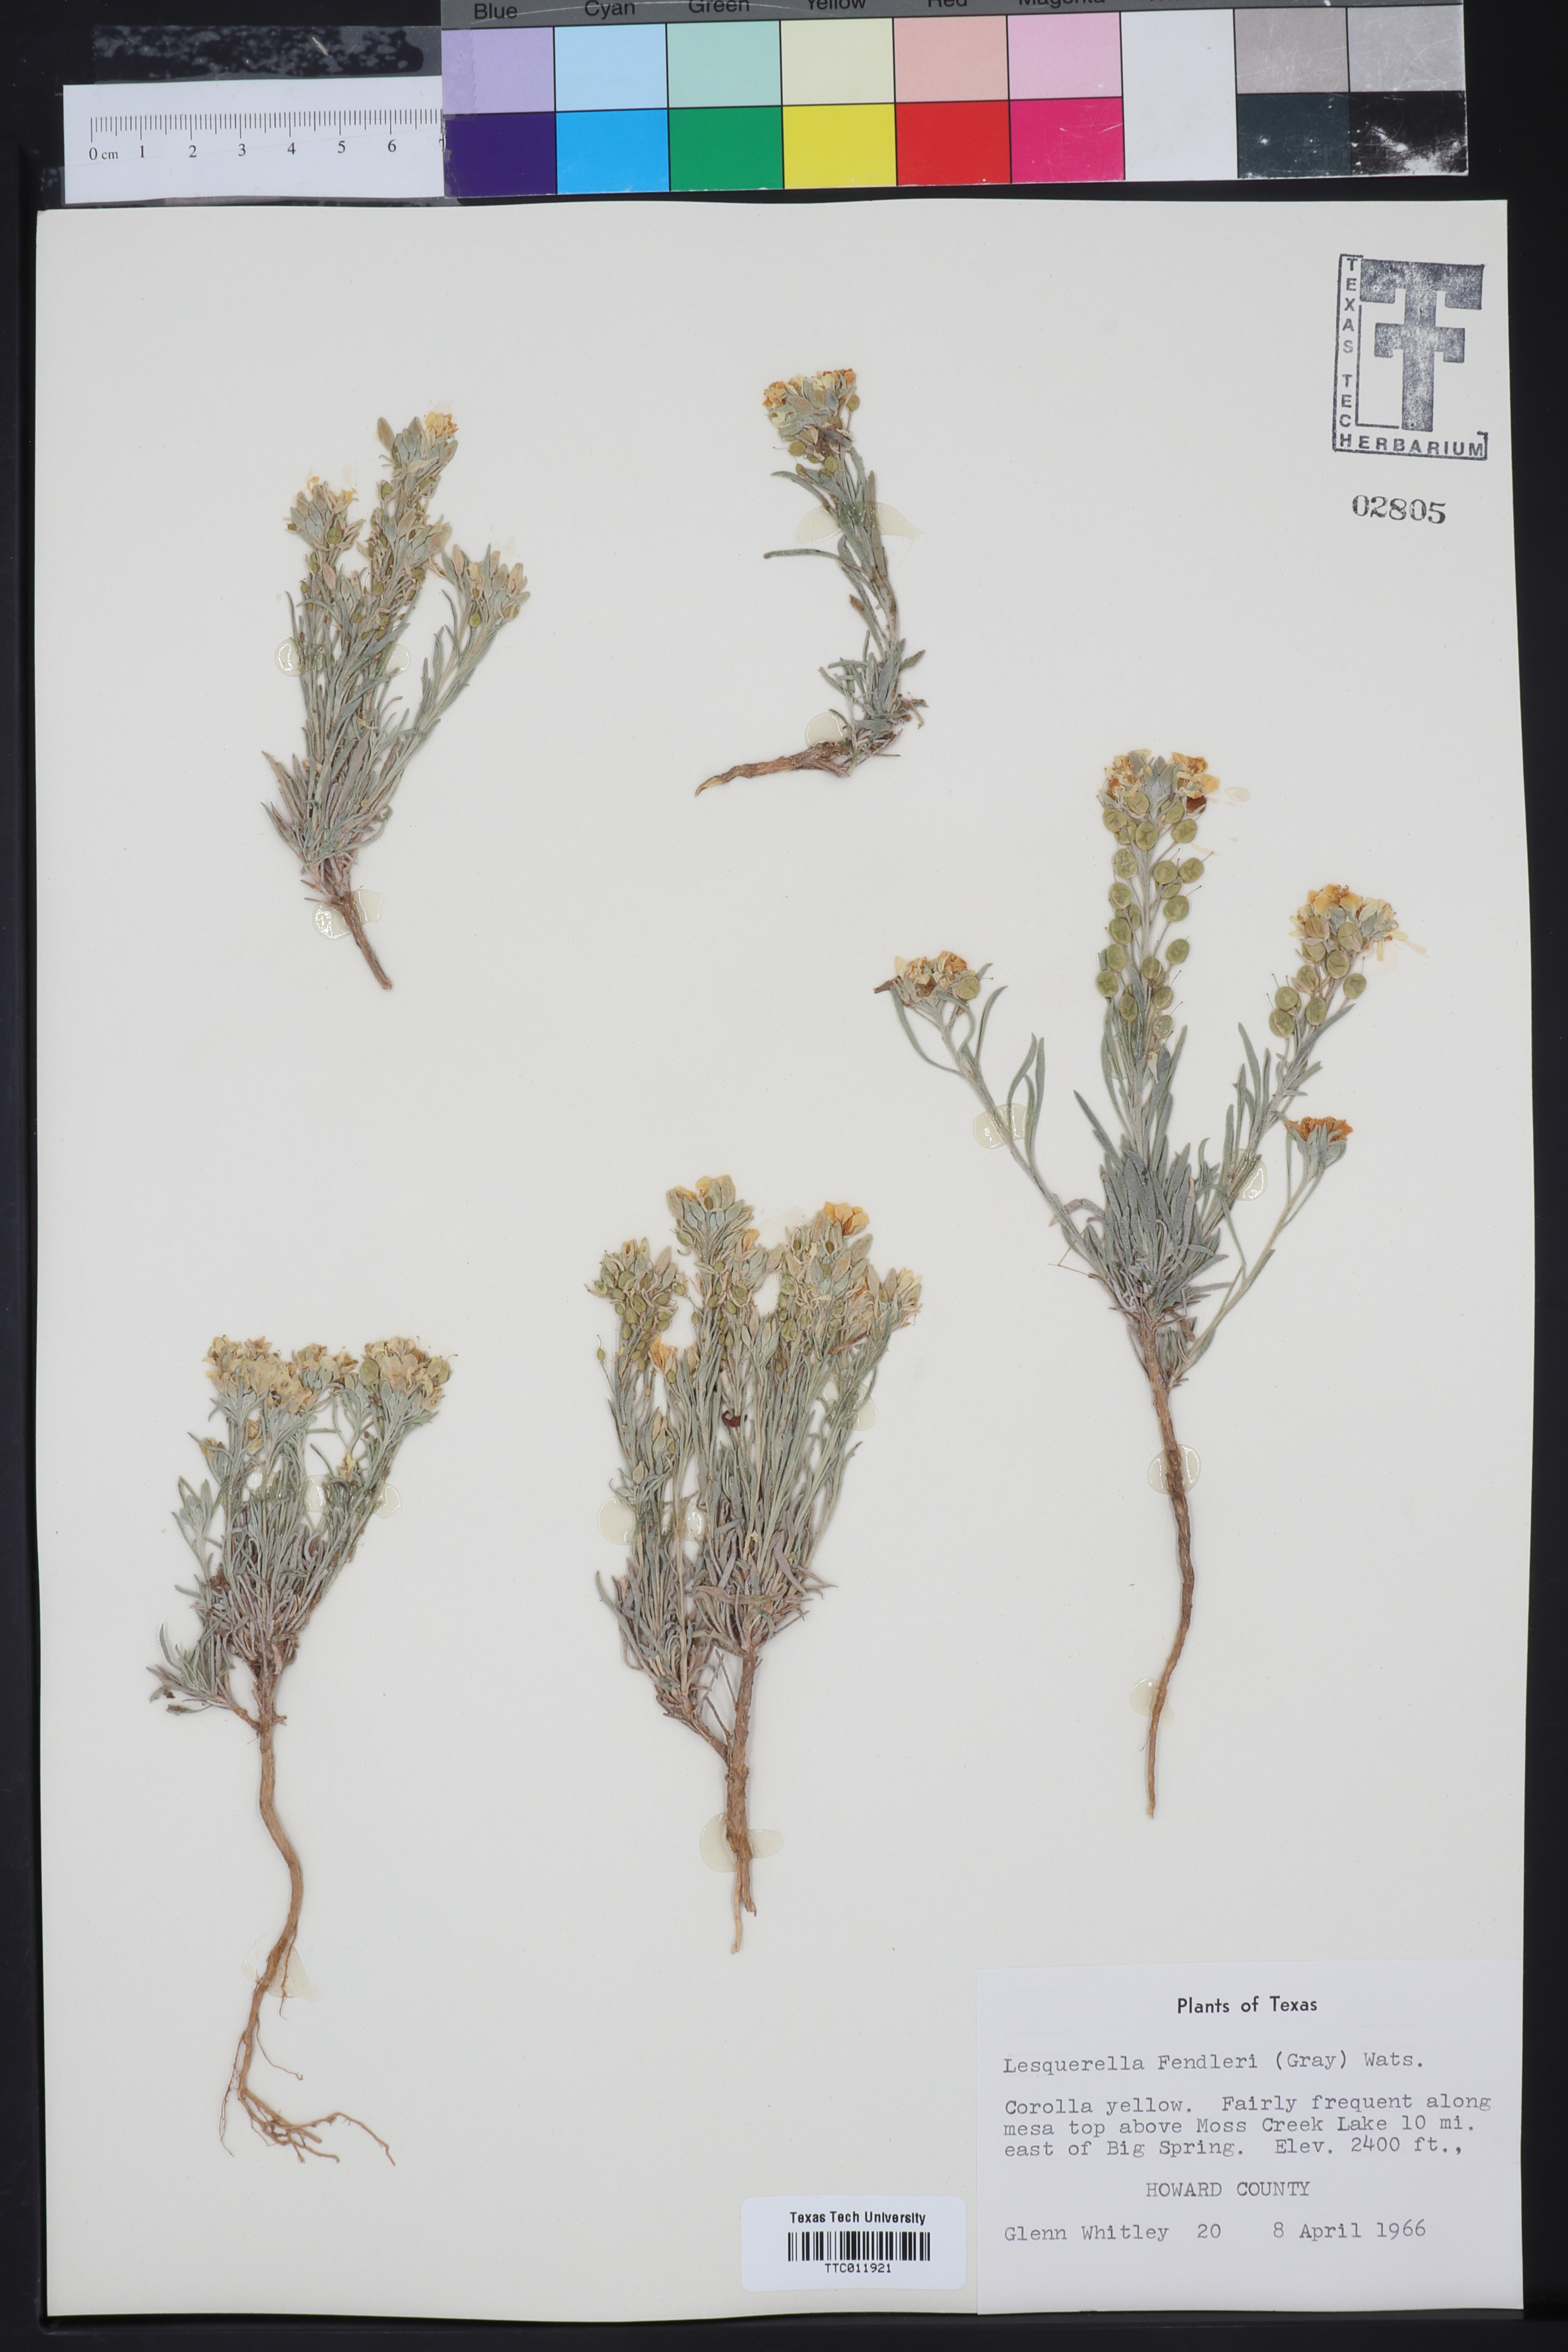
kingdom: Plantae
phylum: Tracheophyta
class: Magnoliopsida
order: Brassicales
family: Brassicaceae
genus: Physaria
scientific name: Physaria fendleri
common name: Fendler's bladderpod
